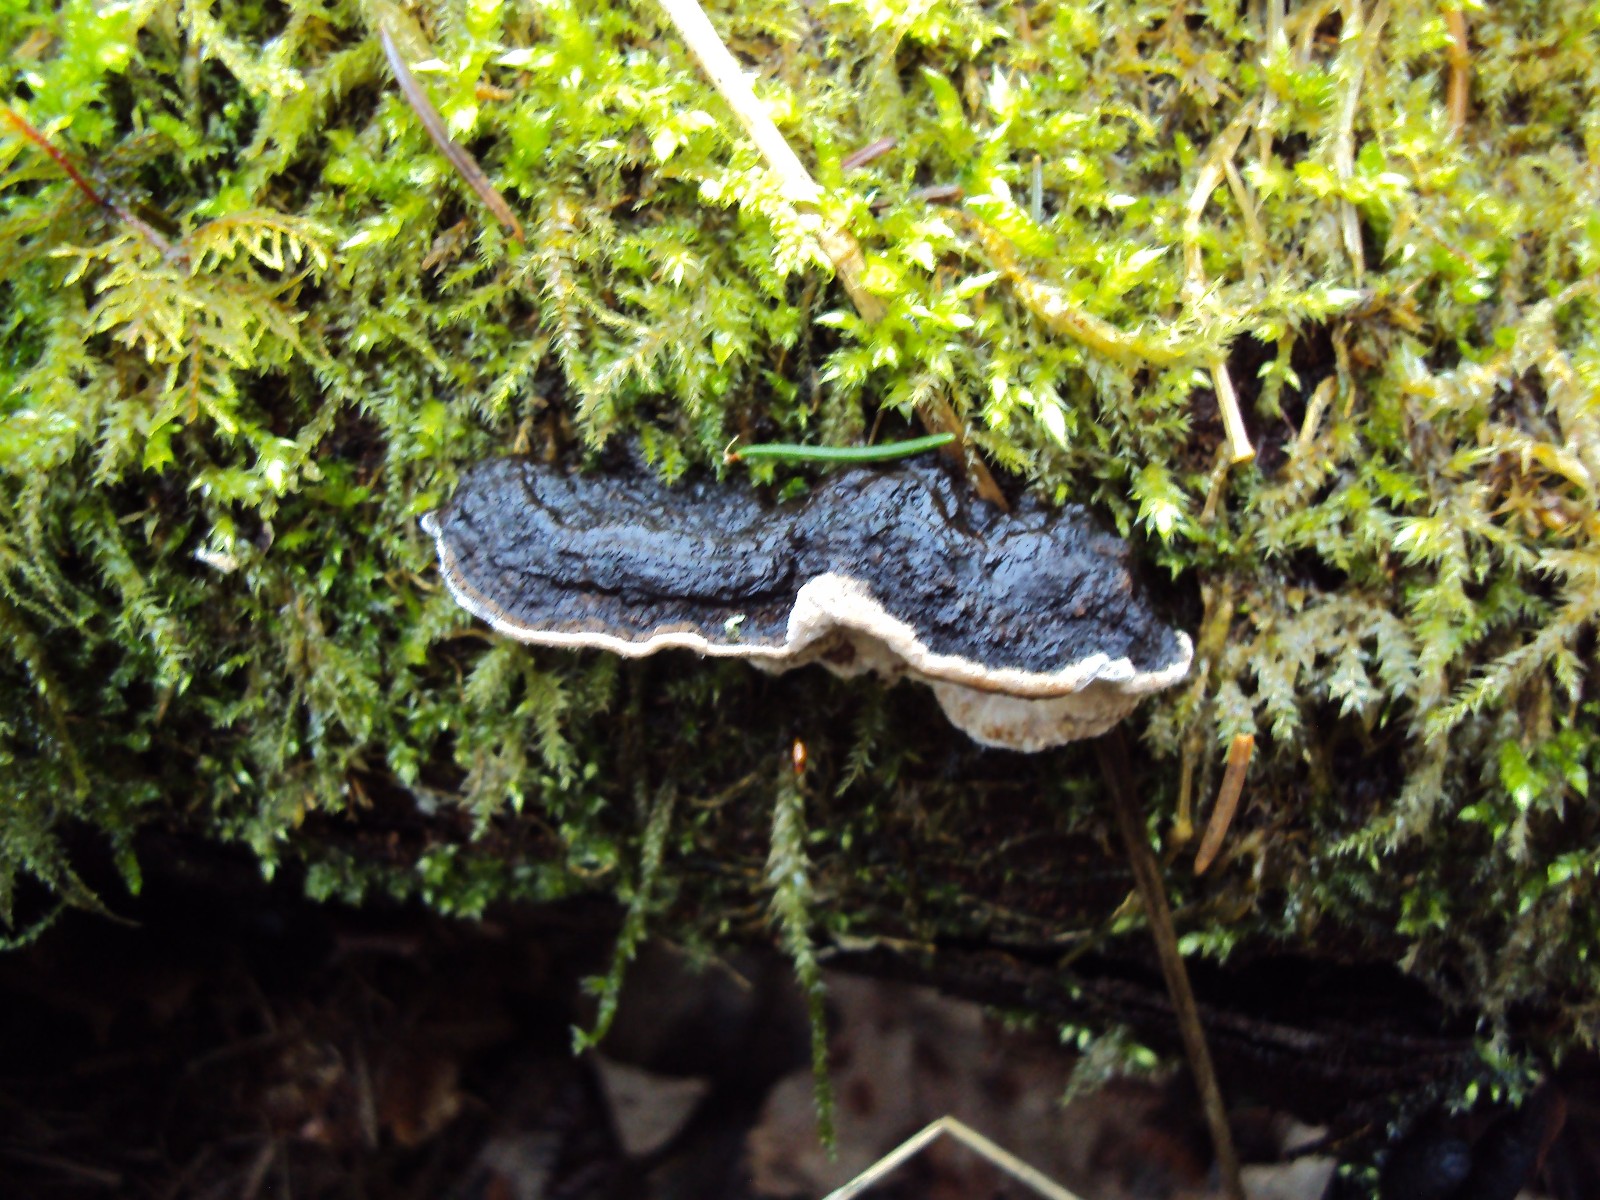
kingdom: Fungi
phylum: Basidiomycota
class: Agaricomycetes
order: Polyporales
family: Polyporaceae
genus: Podofomes
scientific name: Podofomes mollis
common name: blød begporesvamp
